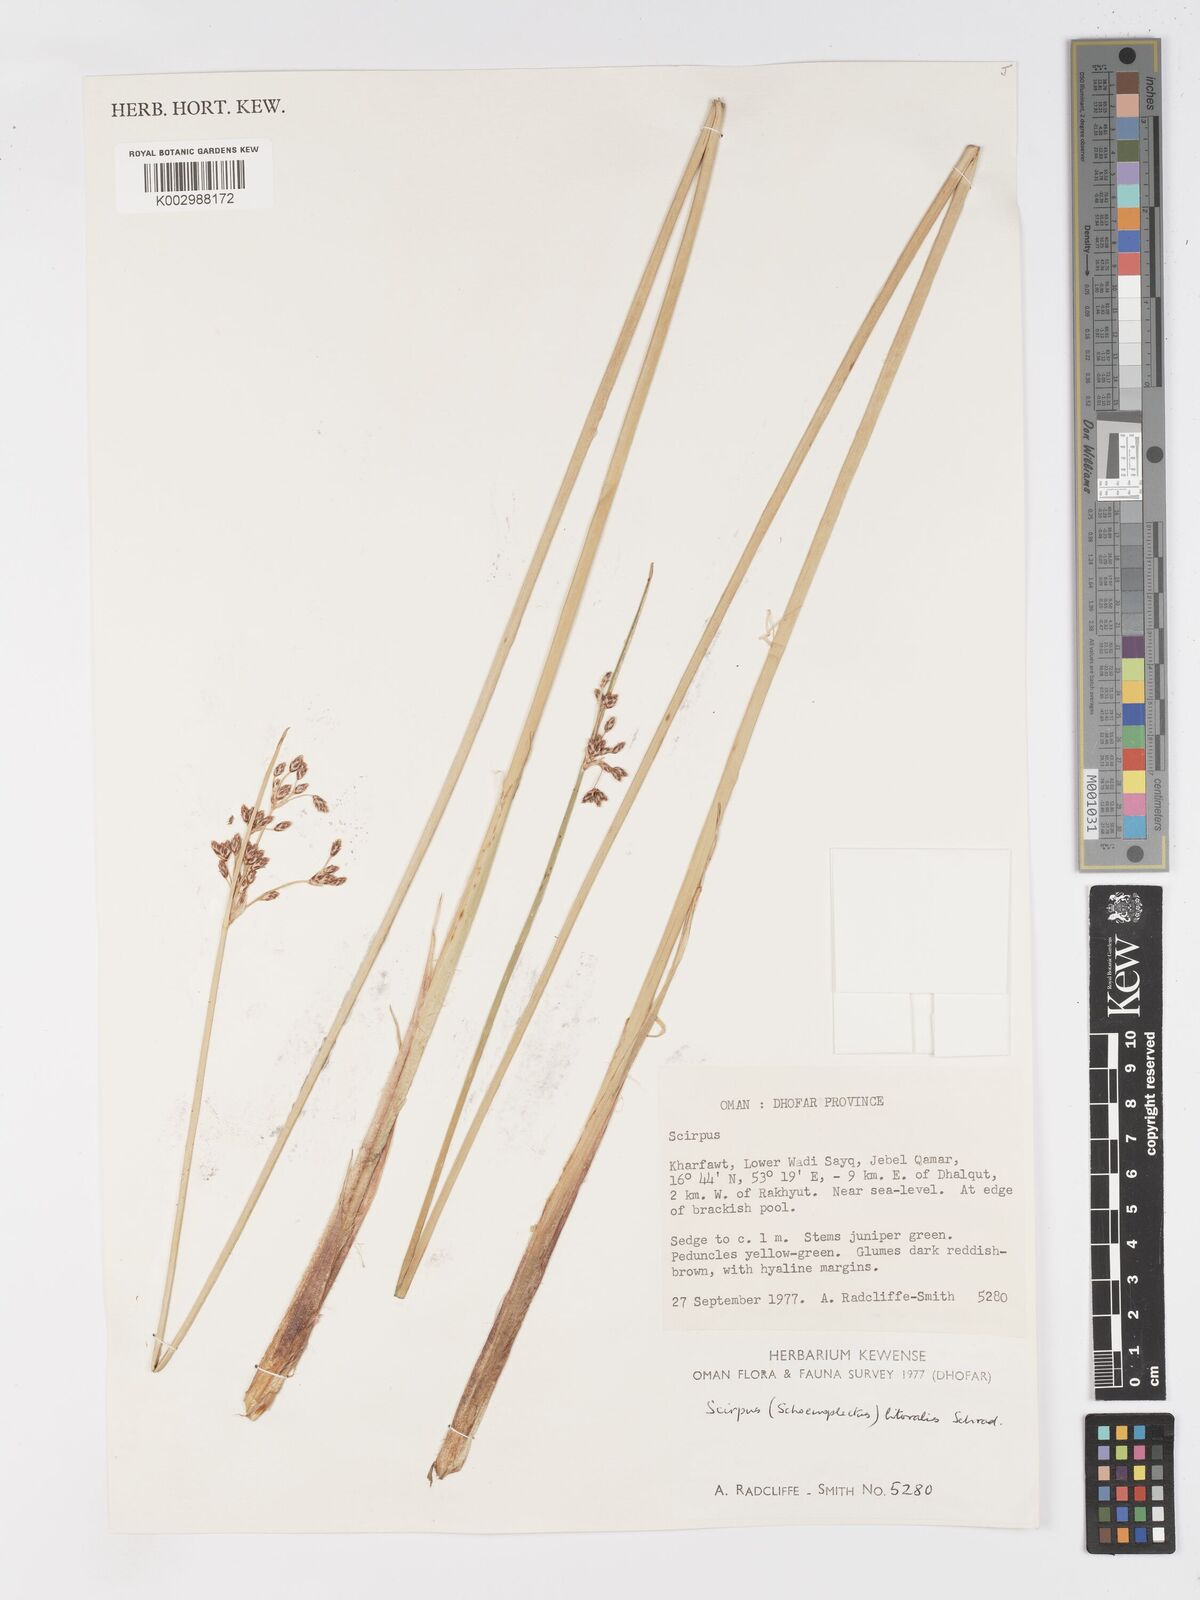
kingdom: Plantae
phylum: Tracheophyta
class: Liliopsida
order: Poales
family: Cyperaceae
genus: Schoenoplectus
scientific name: Schoenoplectus litoralis
